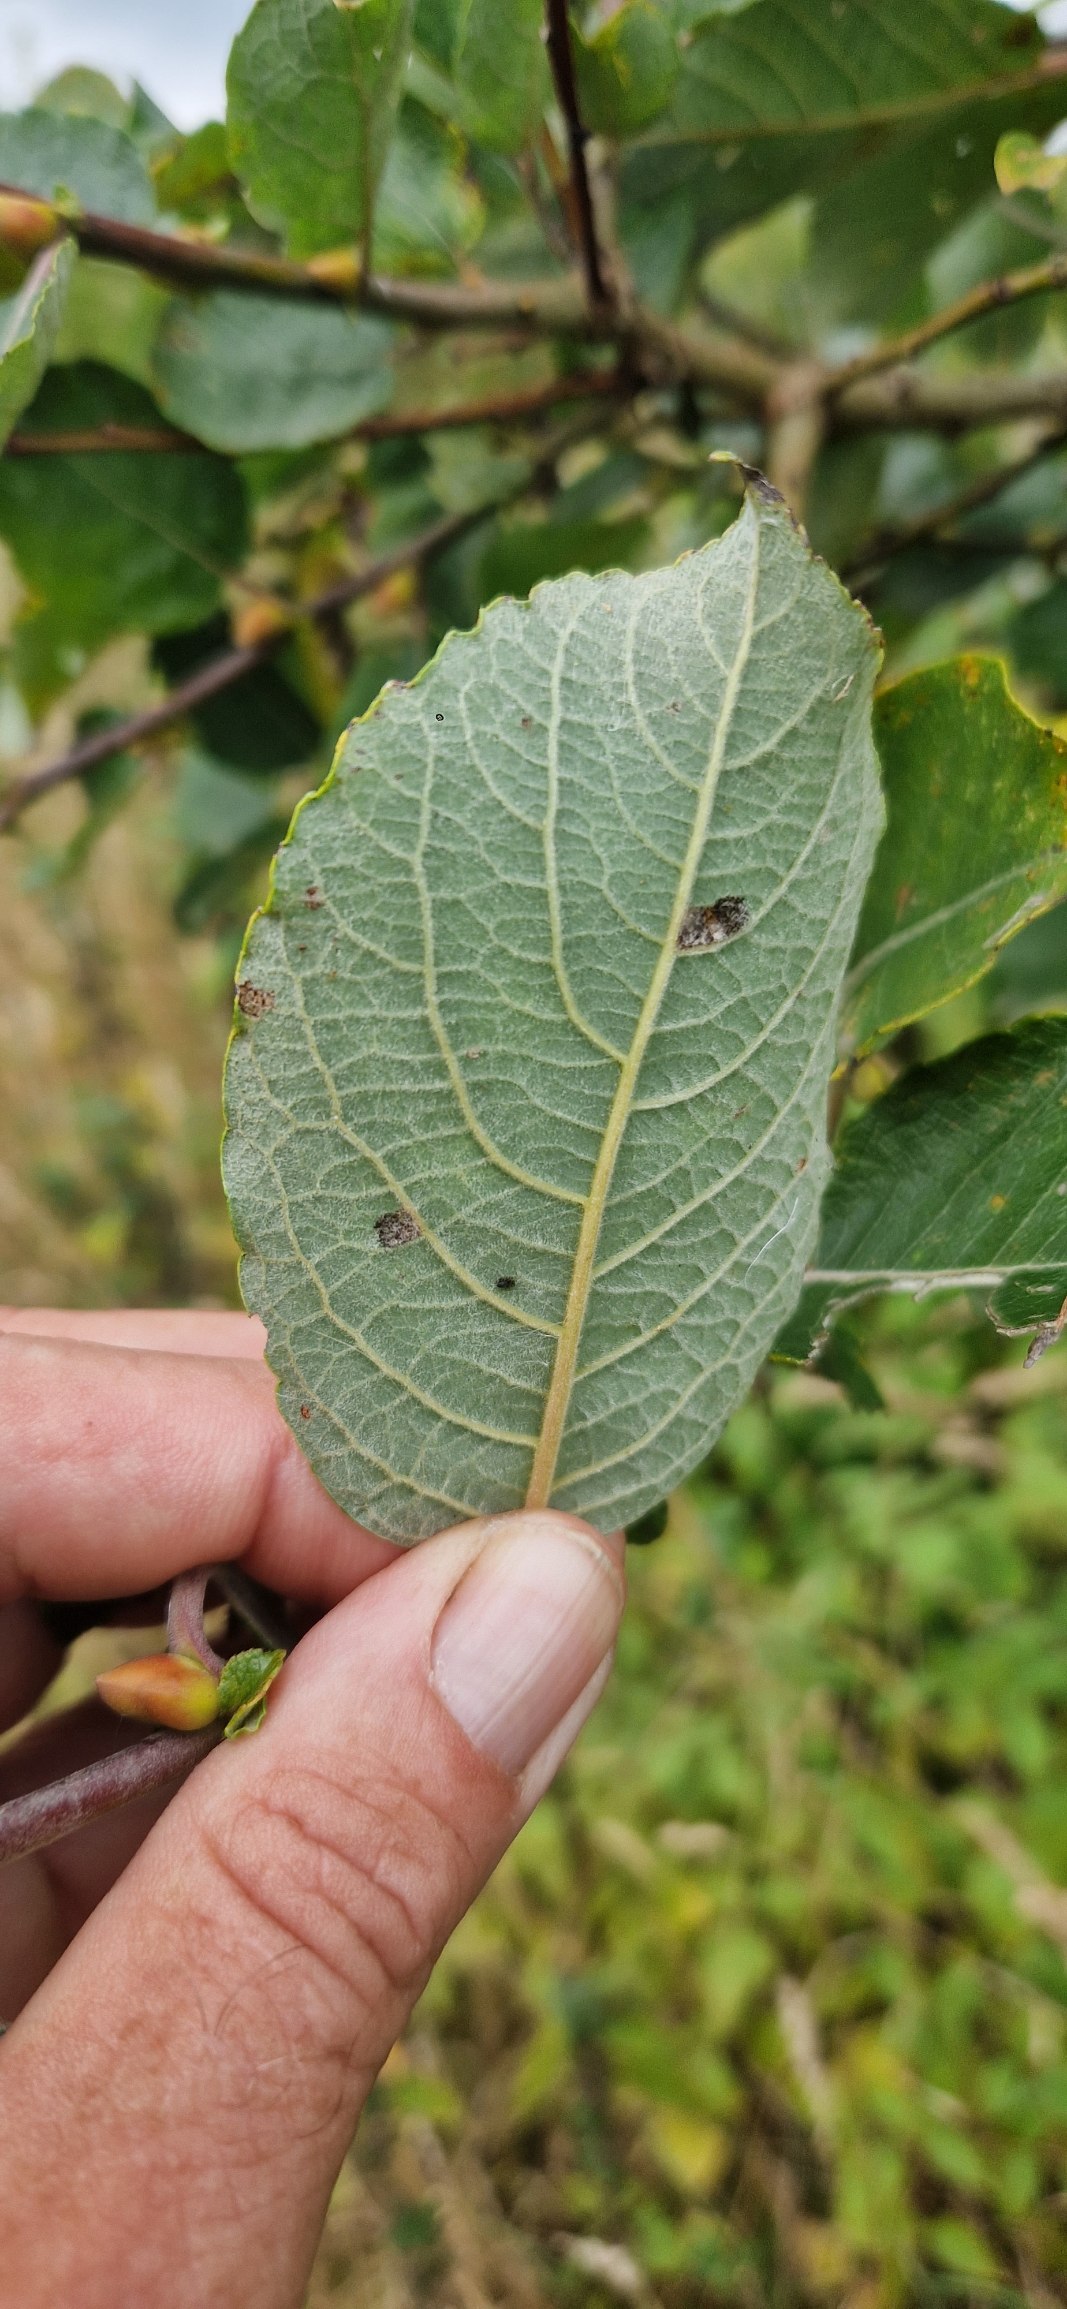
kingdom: Plantae
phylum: Tracheophyta
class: Magnoliopsida
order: Malpighiales
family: Salicaceae
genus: Salix
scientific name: Salix caprea
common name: Selje-pil
